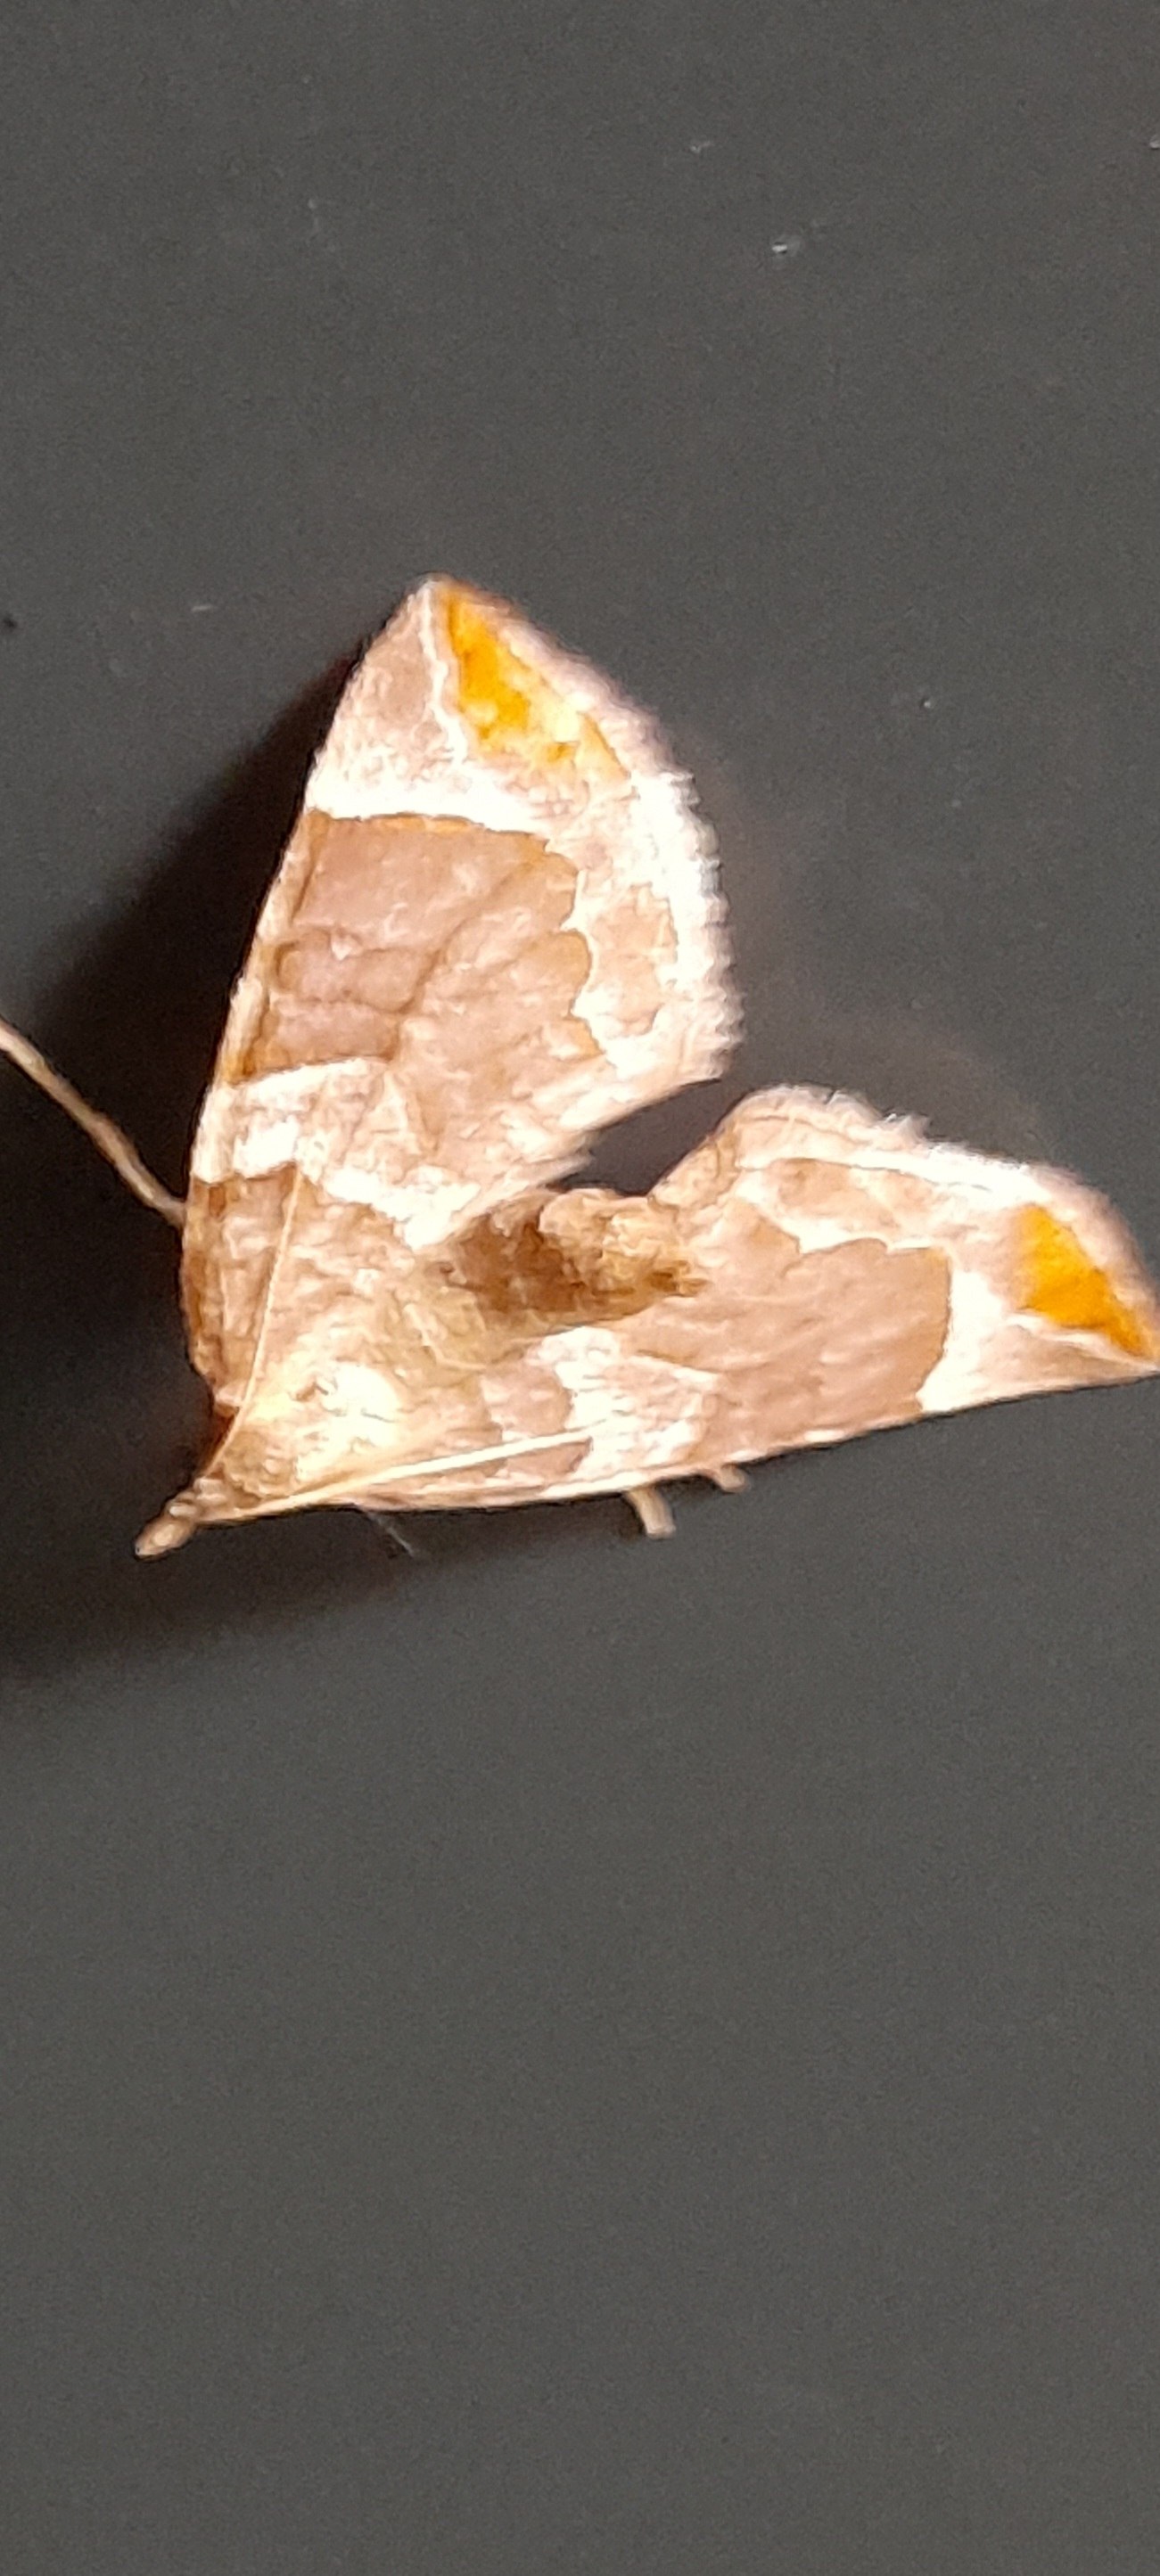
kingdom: Animalia
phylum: Arthropoda
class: Insecta
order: Lepidoptera
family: Geometridae
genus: Eulithis
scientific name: Eulithis testata
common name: Pile-havemåler
